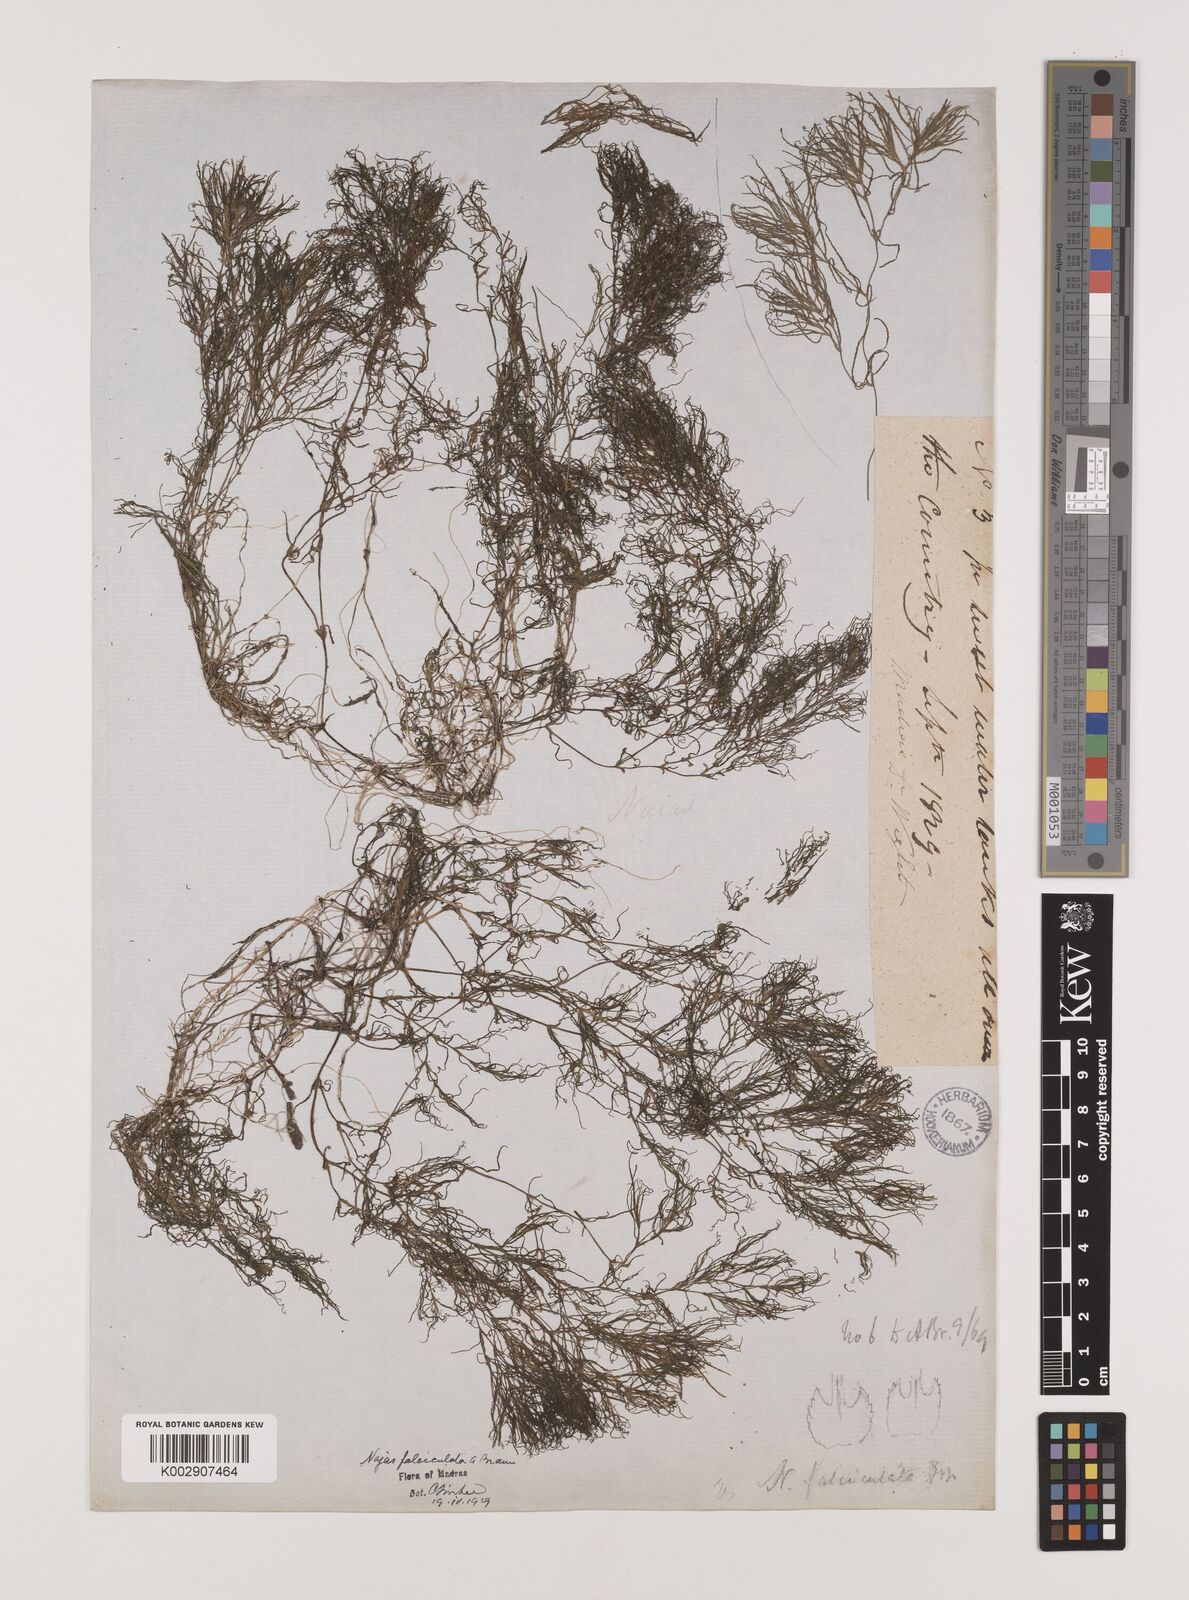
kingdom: Plantae
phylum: Tracheophyta
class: Liliopsida
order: Alismatales
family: Hydrocharitaceae
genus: Najas
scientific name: Najas indica
